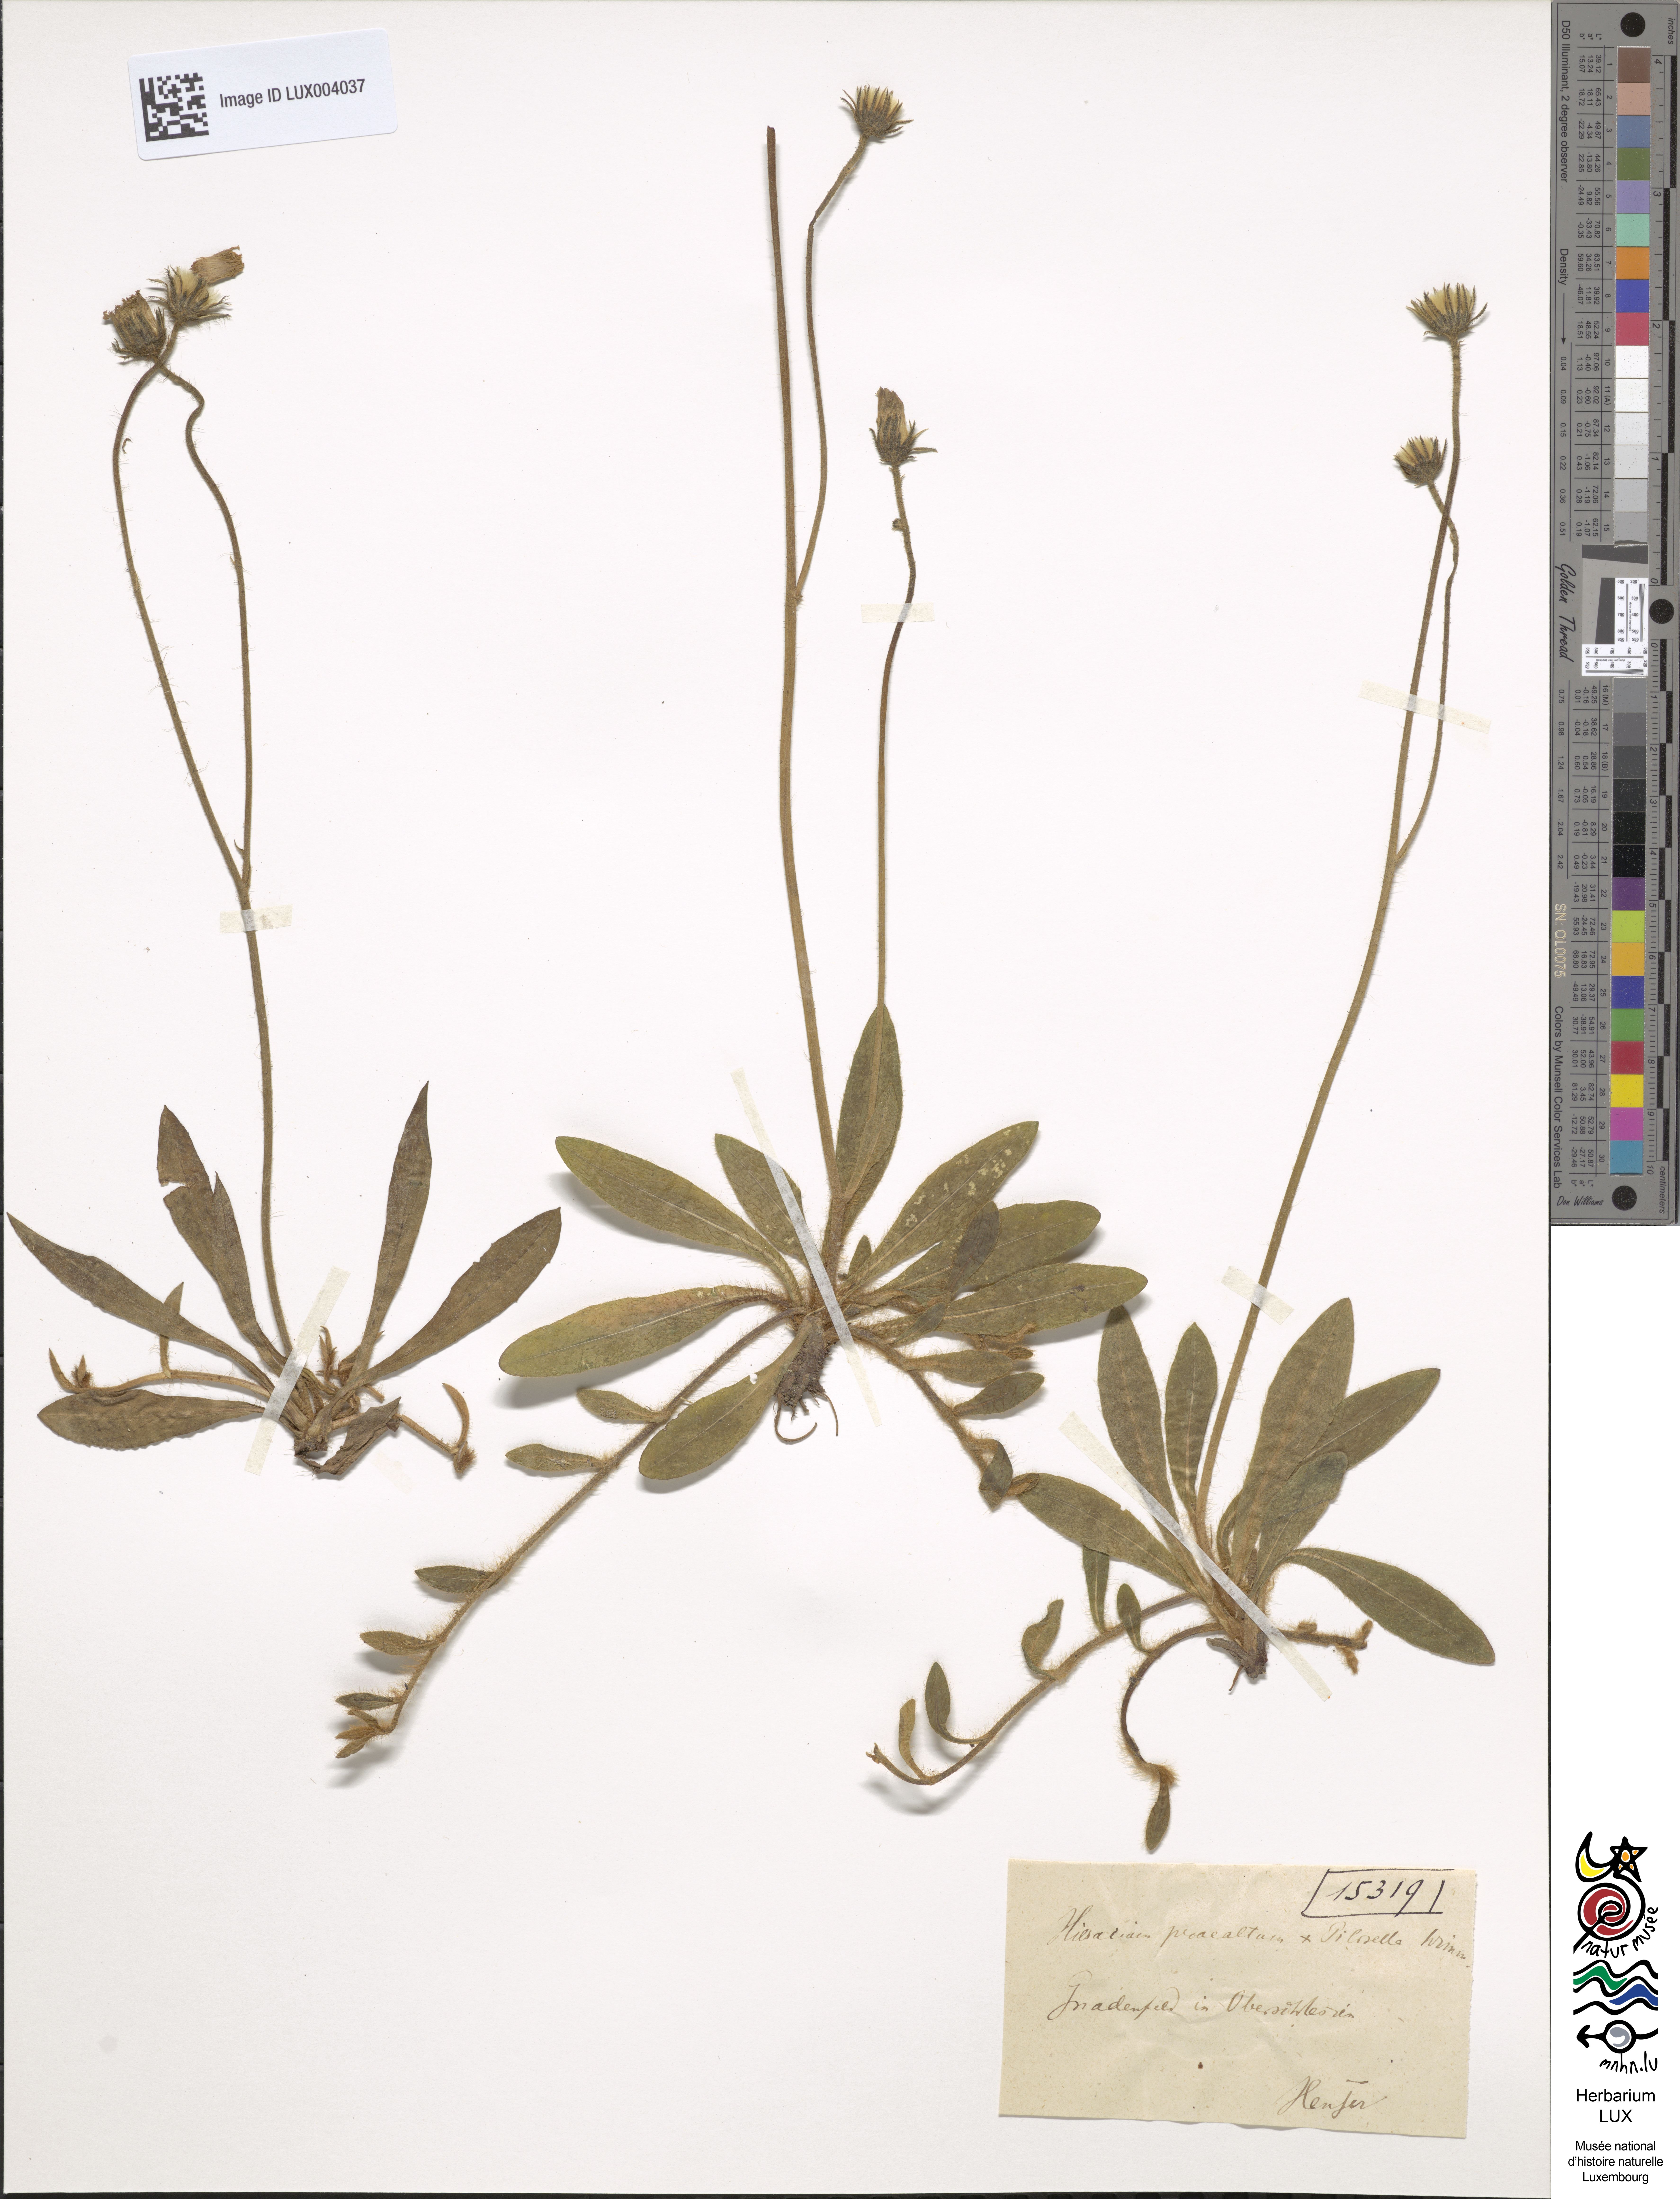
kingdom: Plantae
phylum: Tracheophyta
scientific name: Tracheophyta
